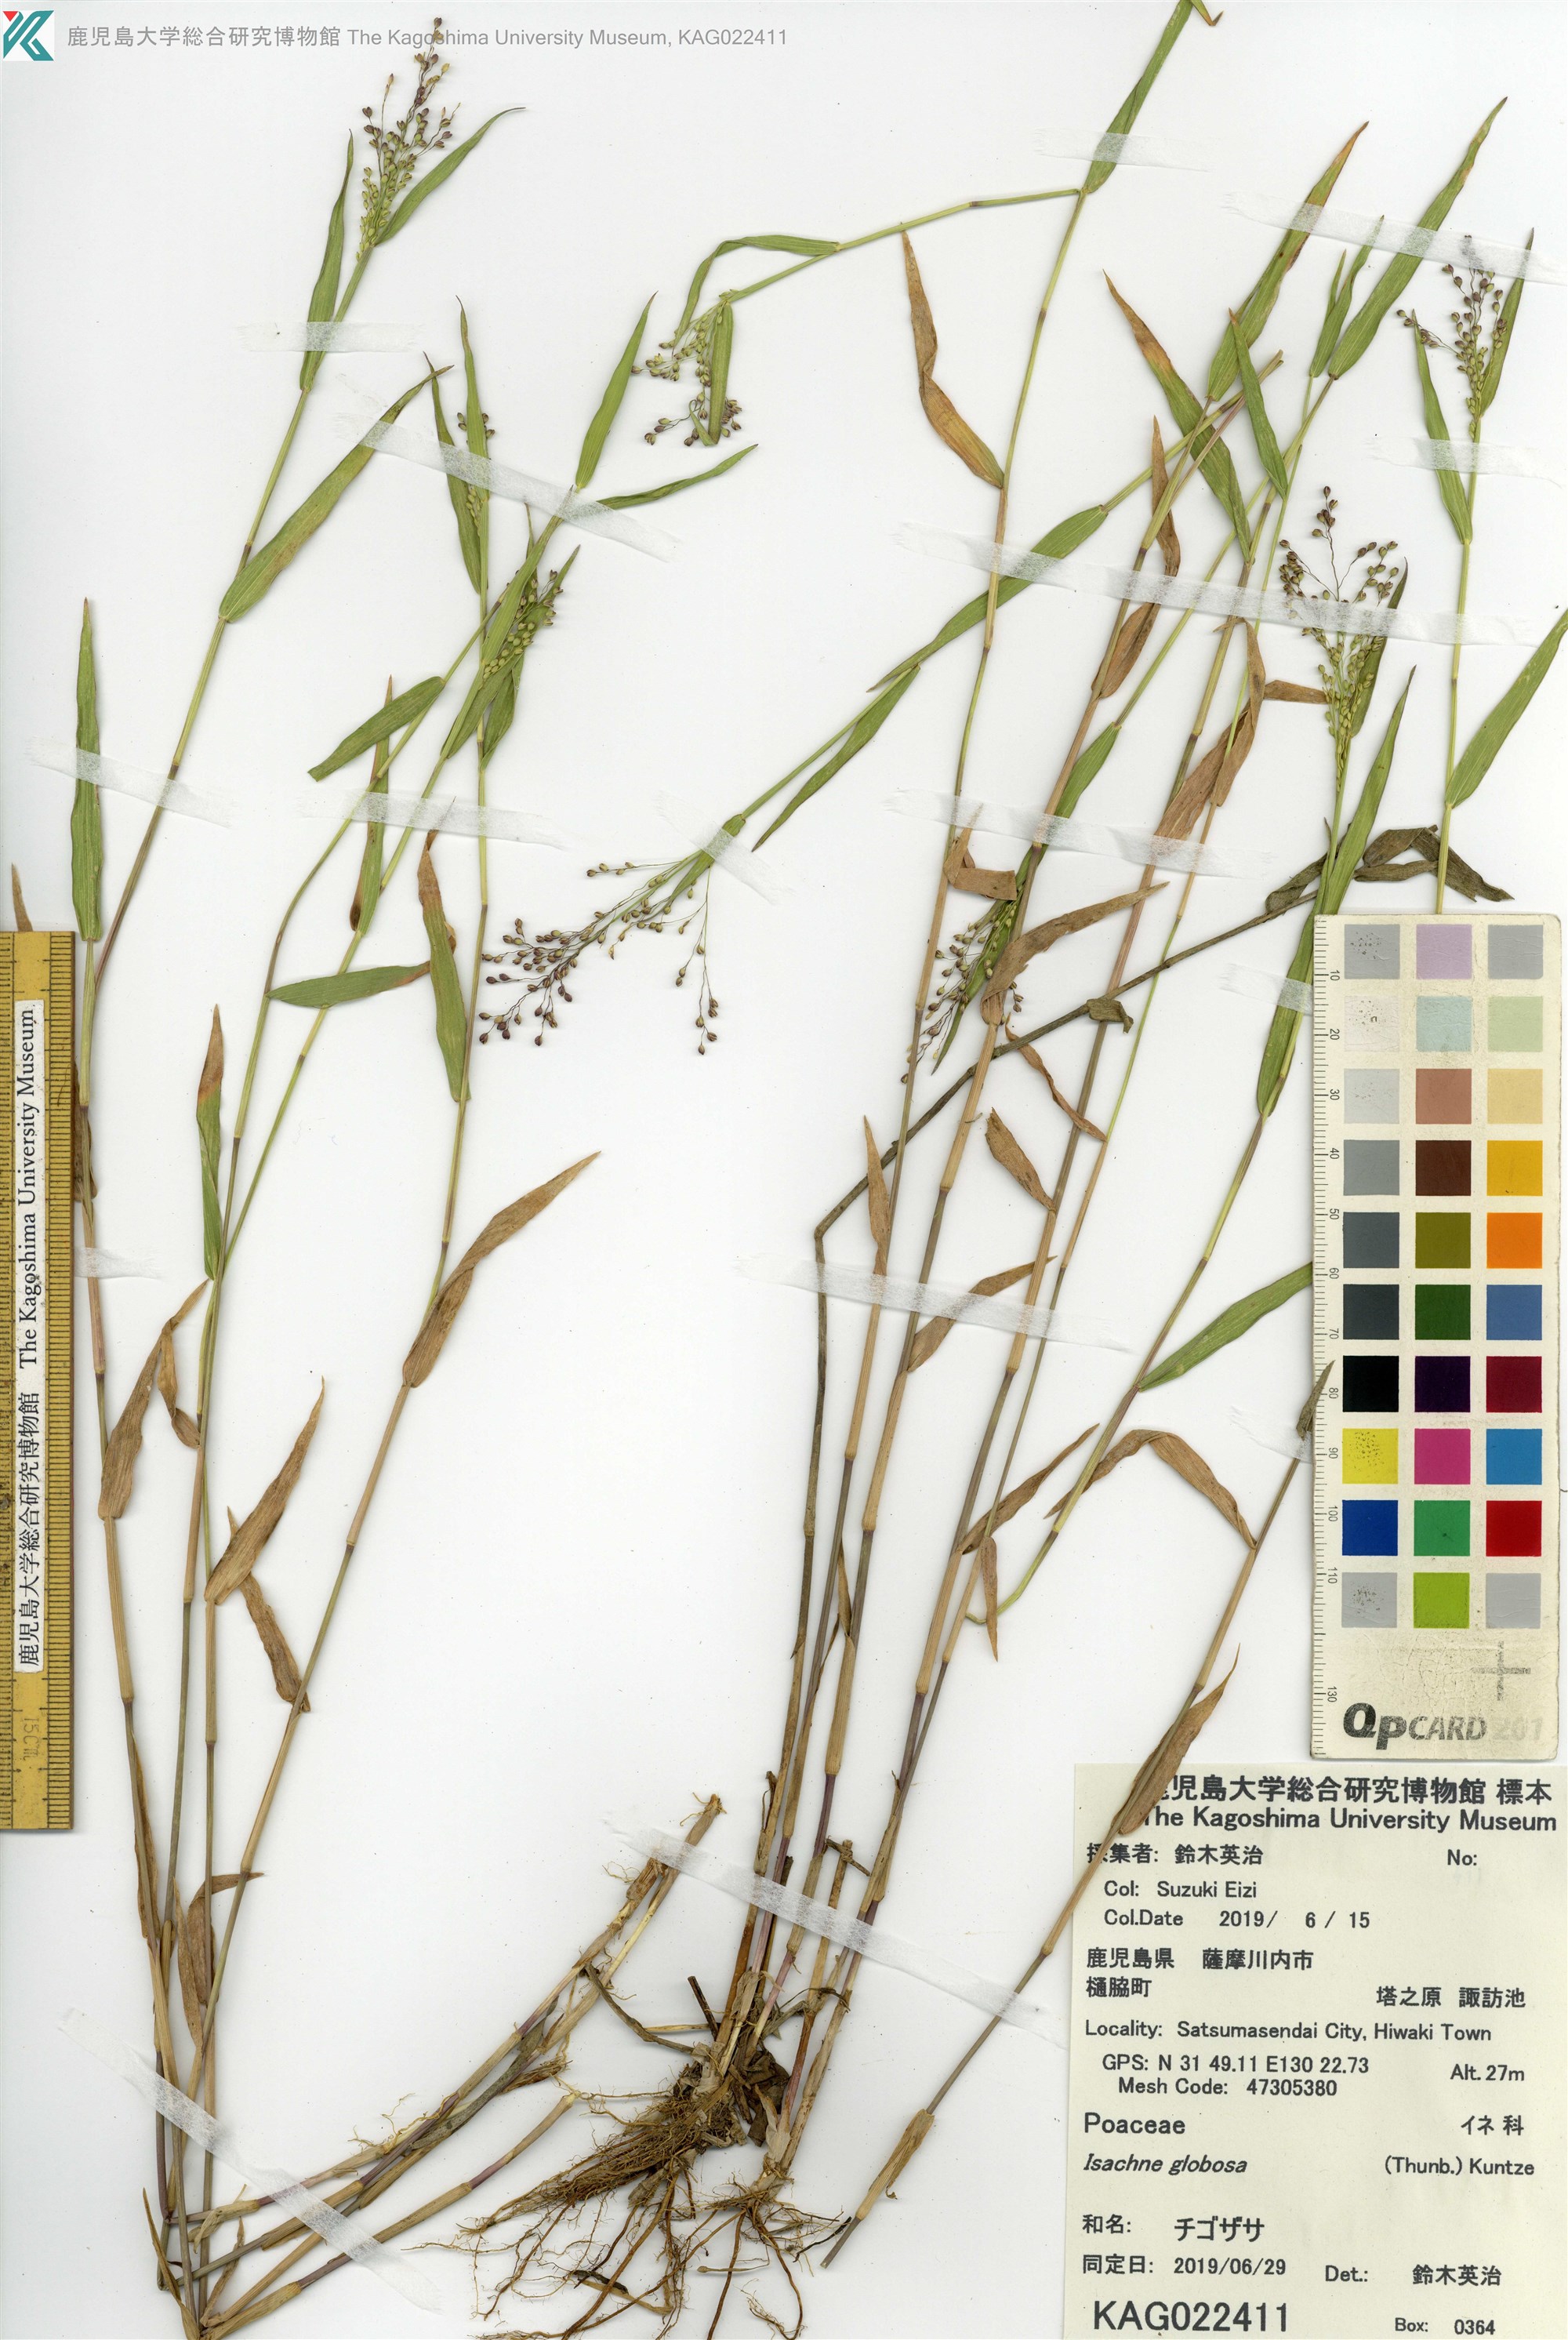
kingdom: Plantae
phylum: Tracheophyta
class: Liliopsida
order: Poales
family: Poaceae
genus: Isachne
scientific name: Isachne globosa
